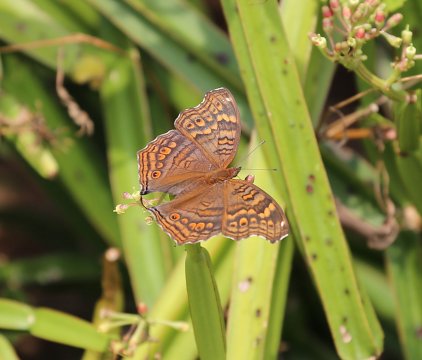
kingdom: Animalia
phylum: Arthropoda
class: Insecta
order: Lepidoptera
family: Nymphalidae
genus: Junonia
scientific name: Junonia chorimene
